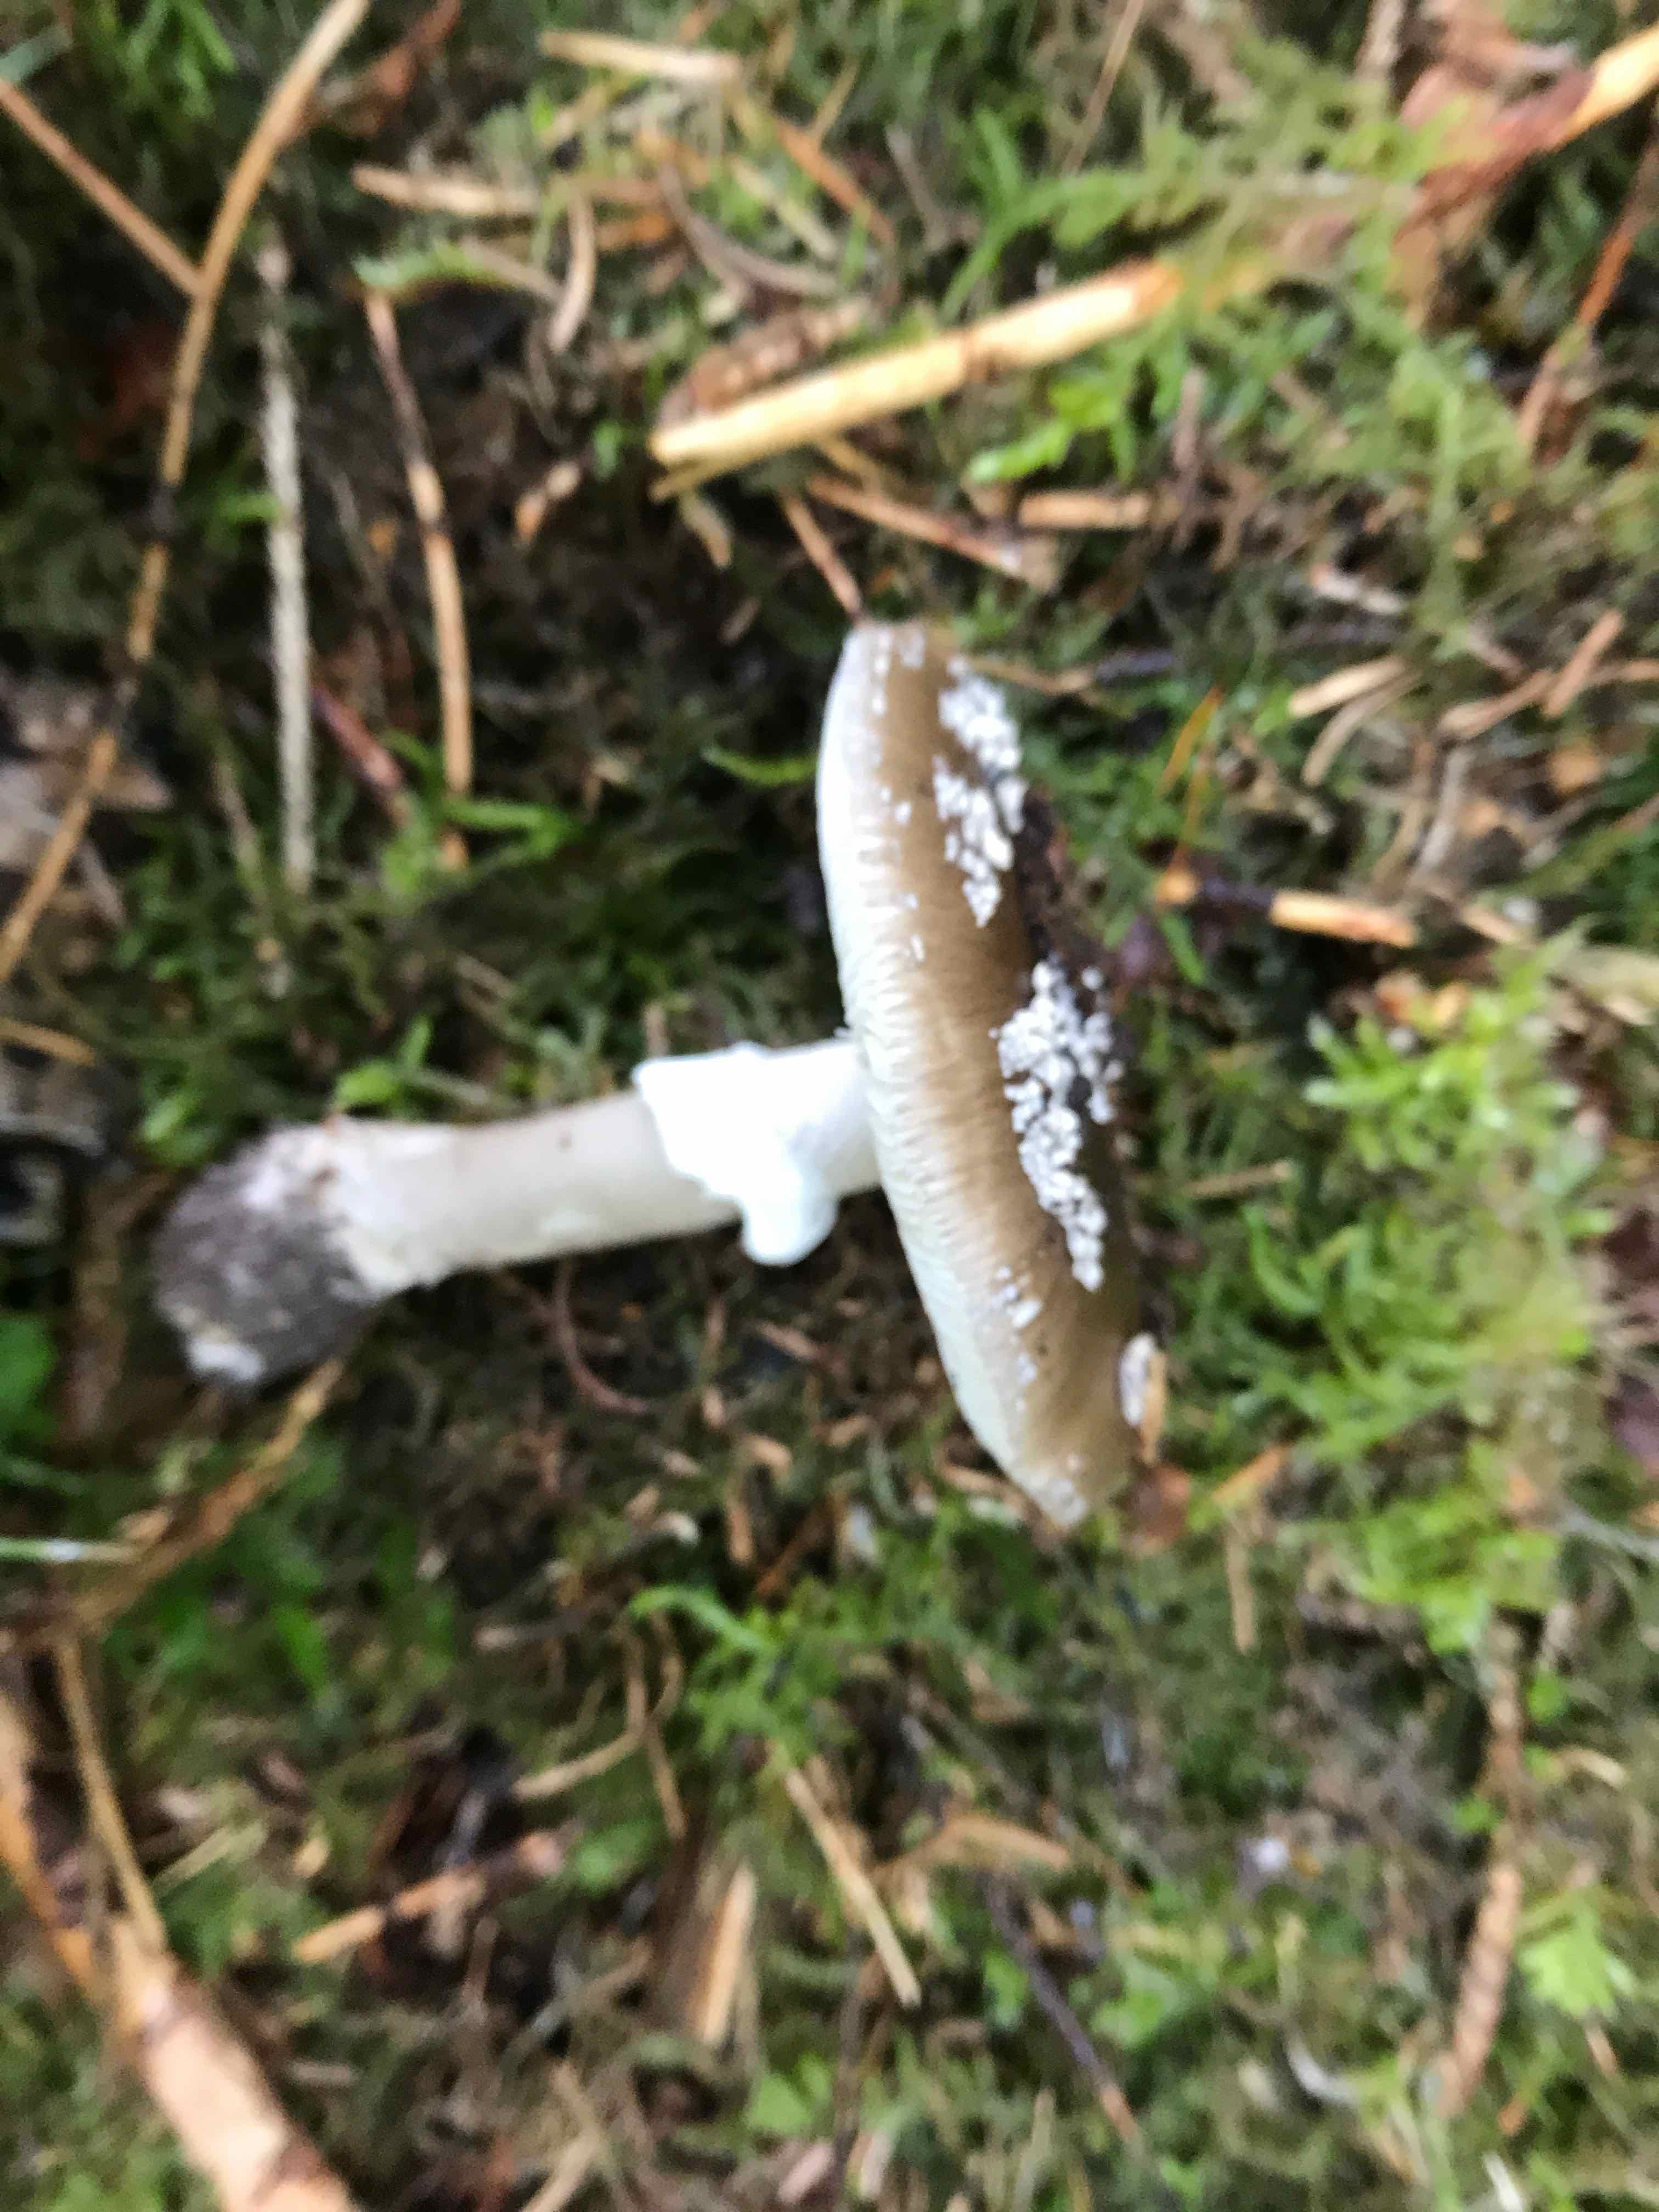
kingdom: Fungi
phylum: Basidiomycota
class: Agaricomycetes
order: Agaricales
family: Amanitaceae
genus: Amanita
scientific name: Amanita
